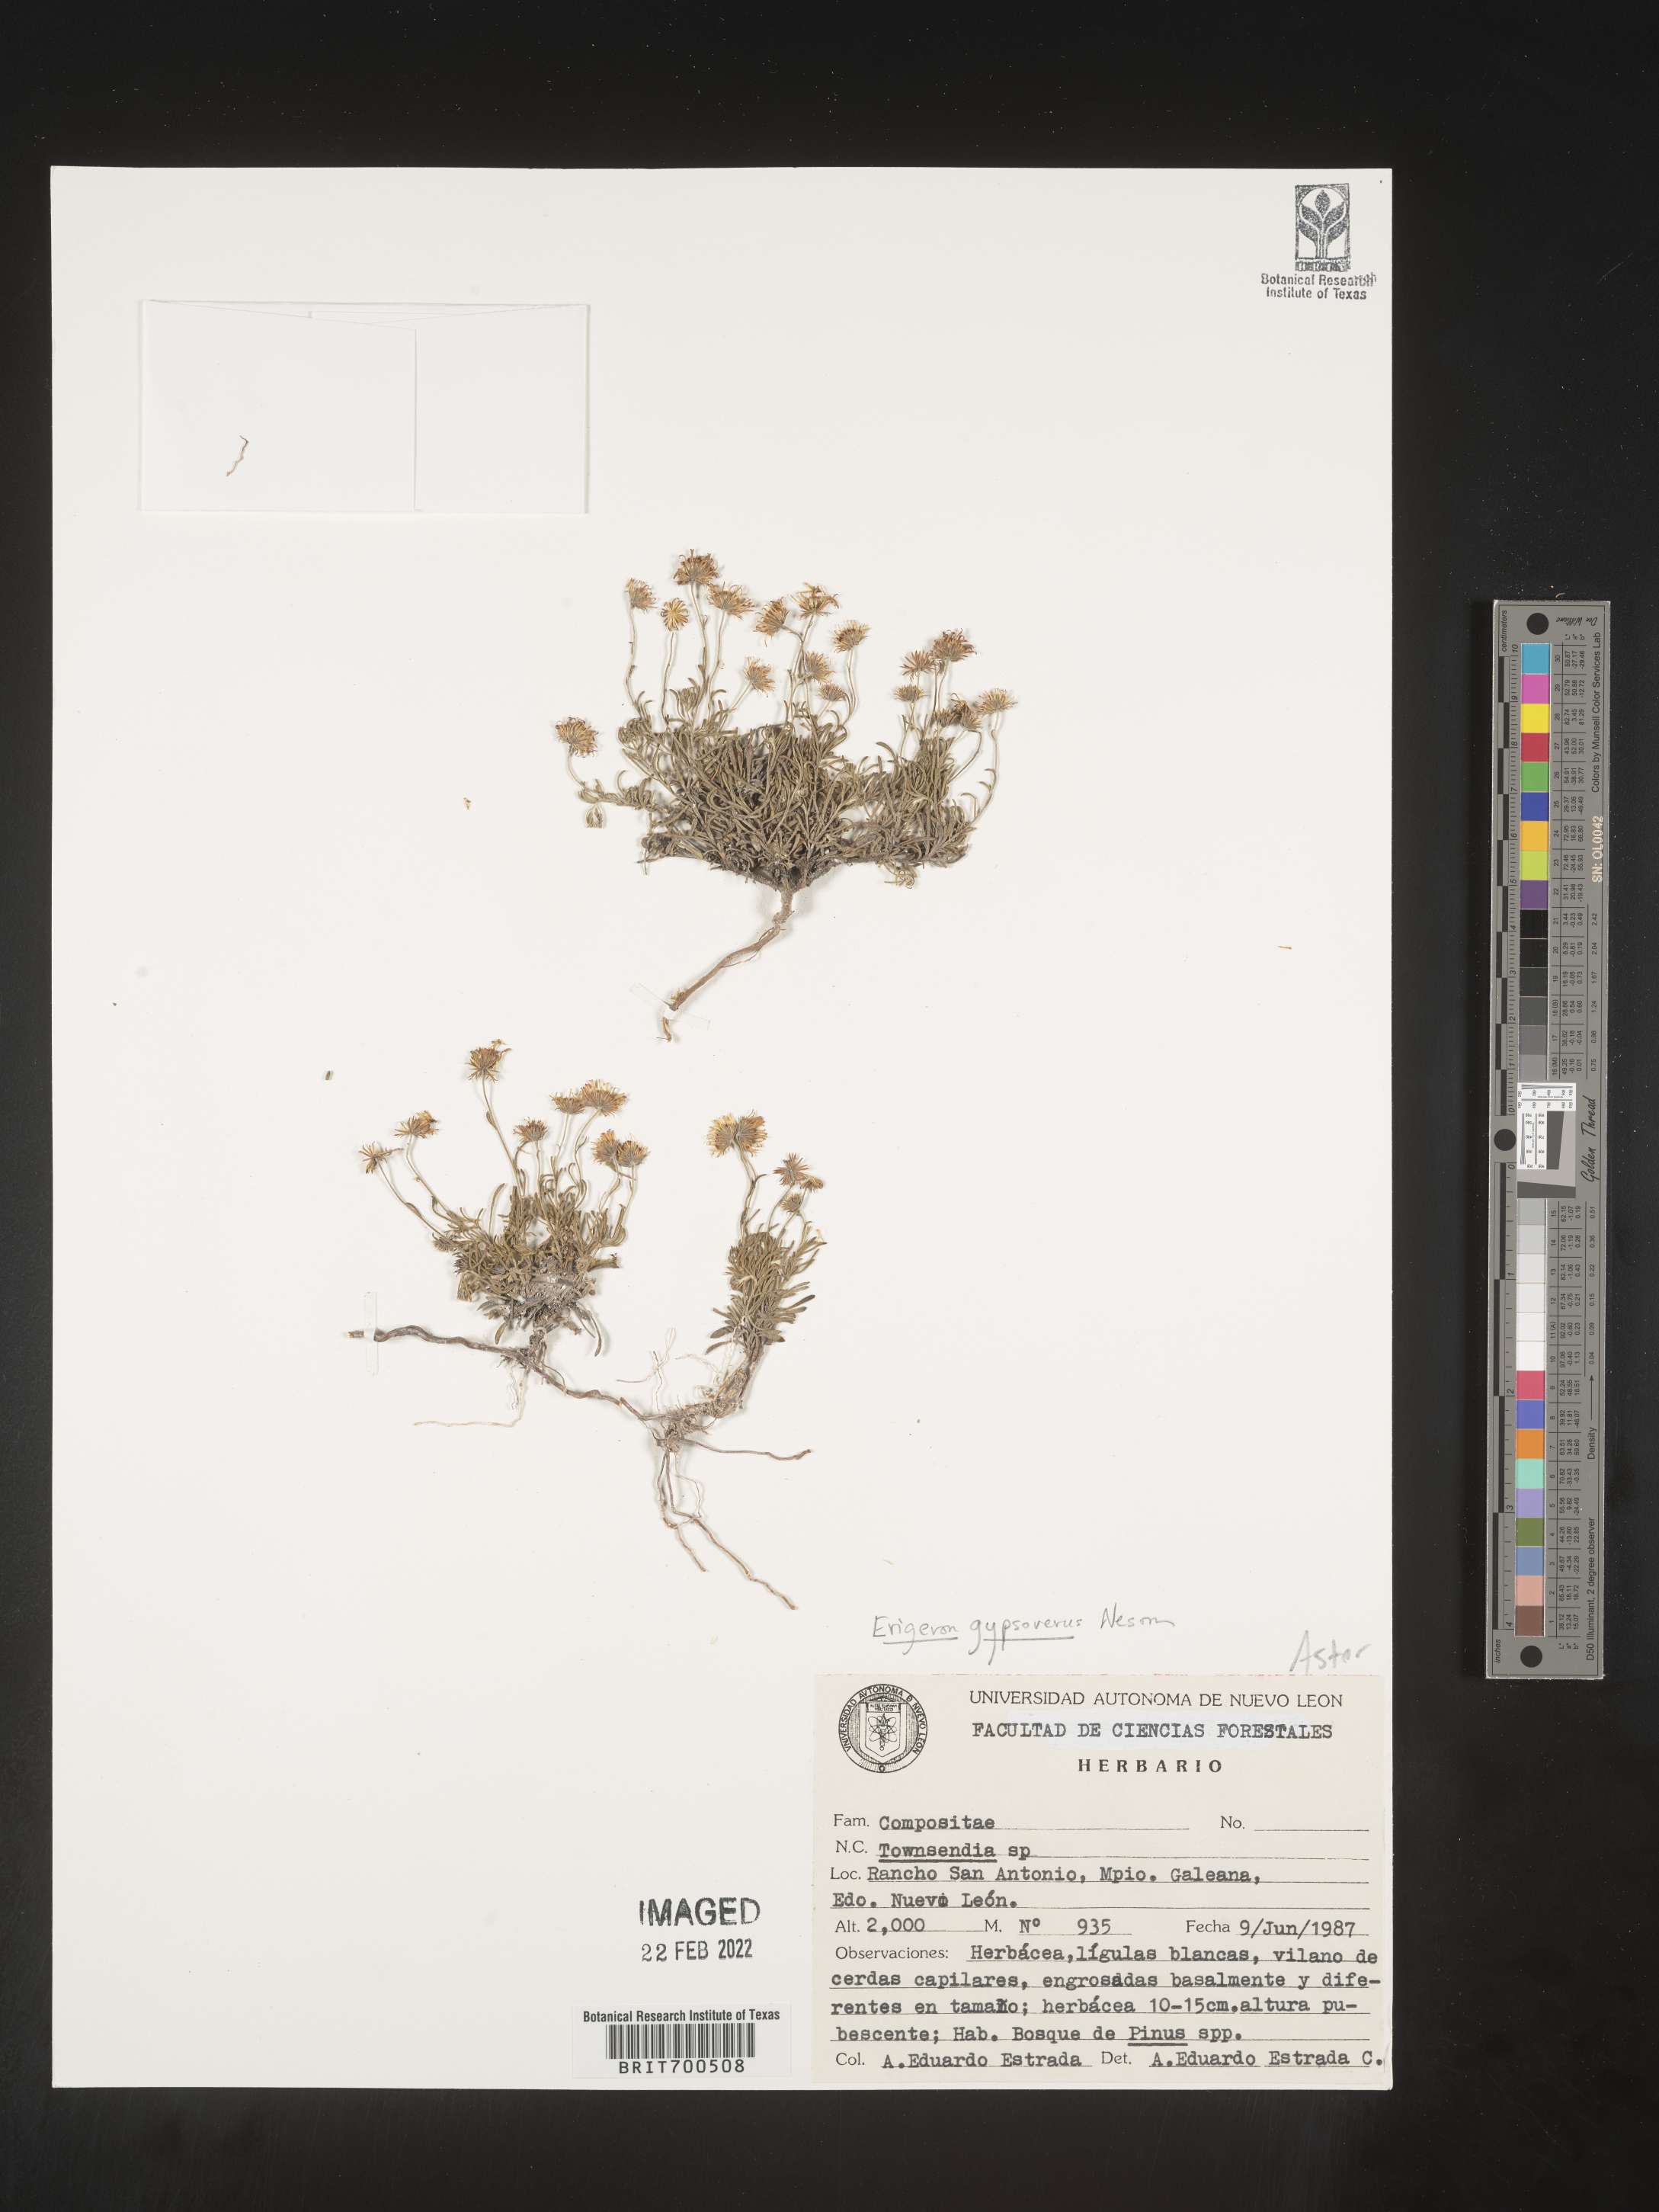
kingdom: Plantae
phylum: Tracheophyta
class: Magnoliopsida
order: Asterales
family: Asteraceae
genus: Erigeron
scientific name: Erigeron
